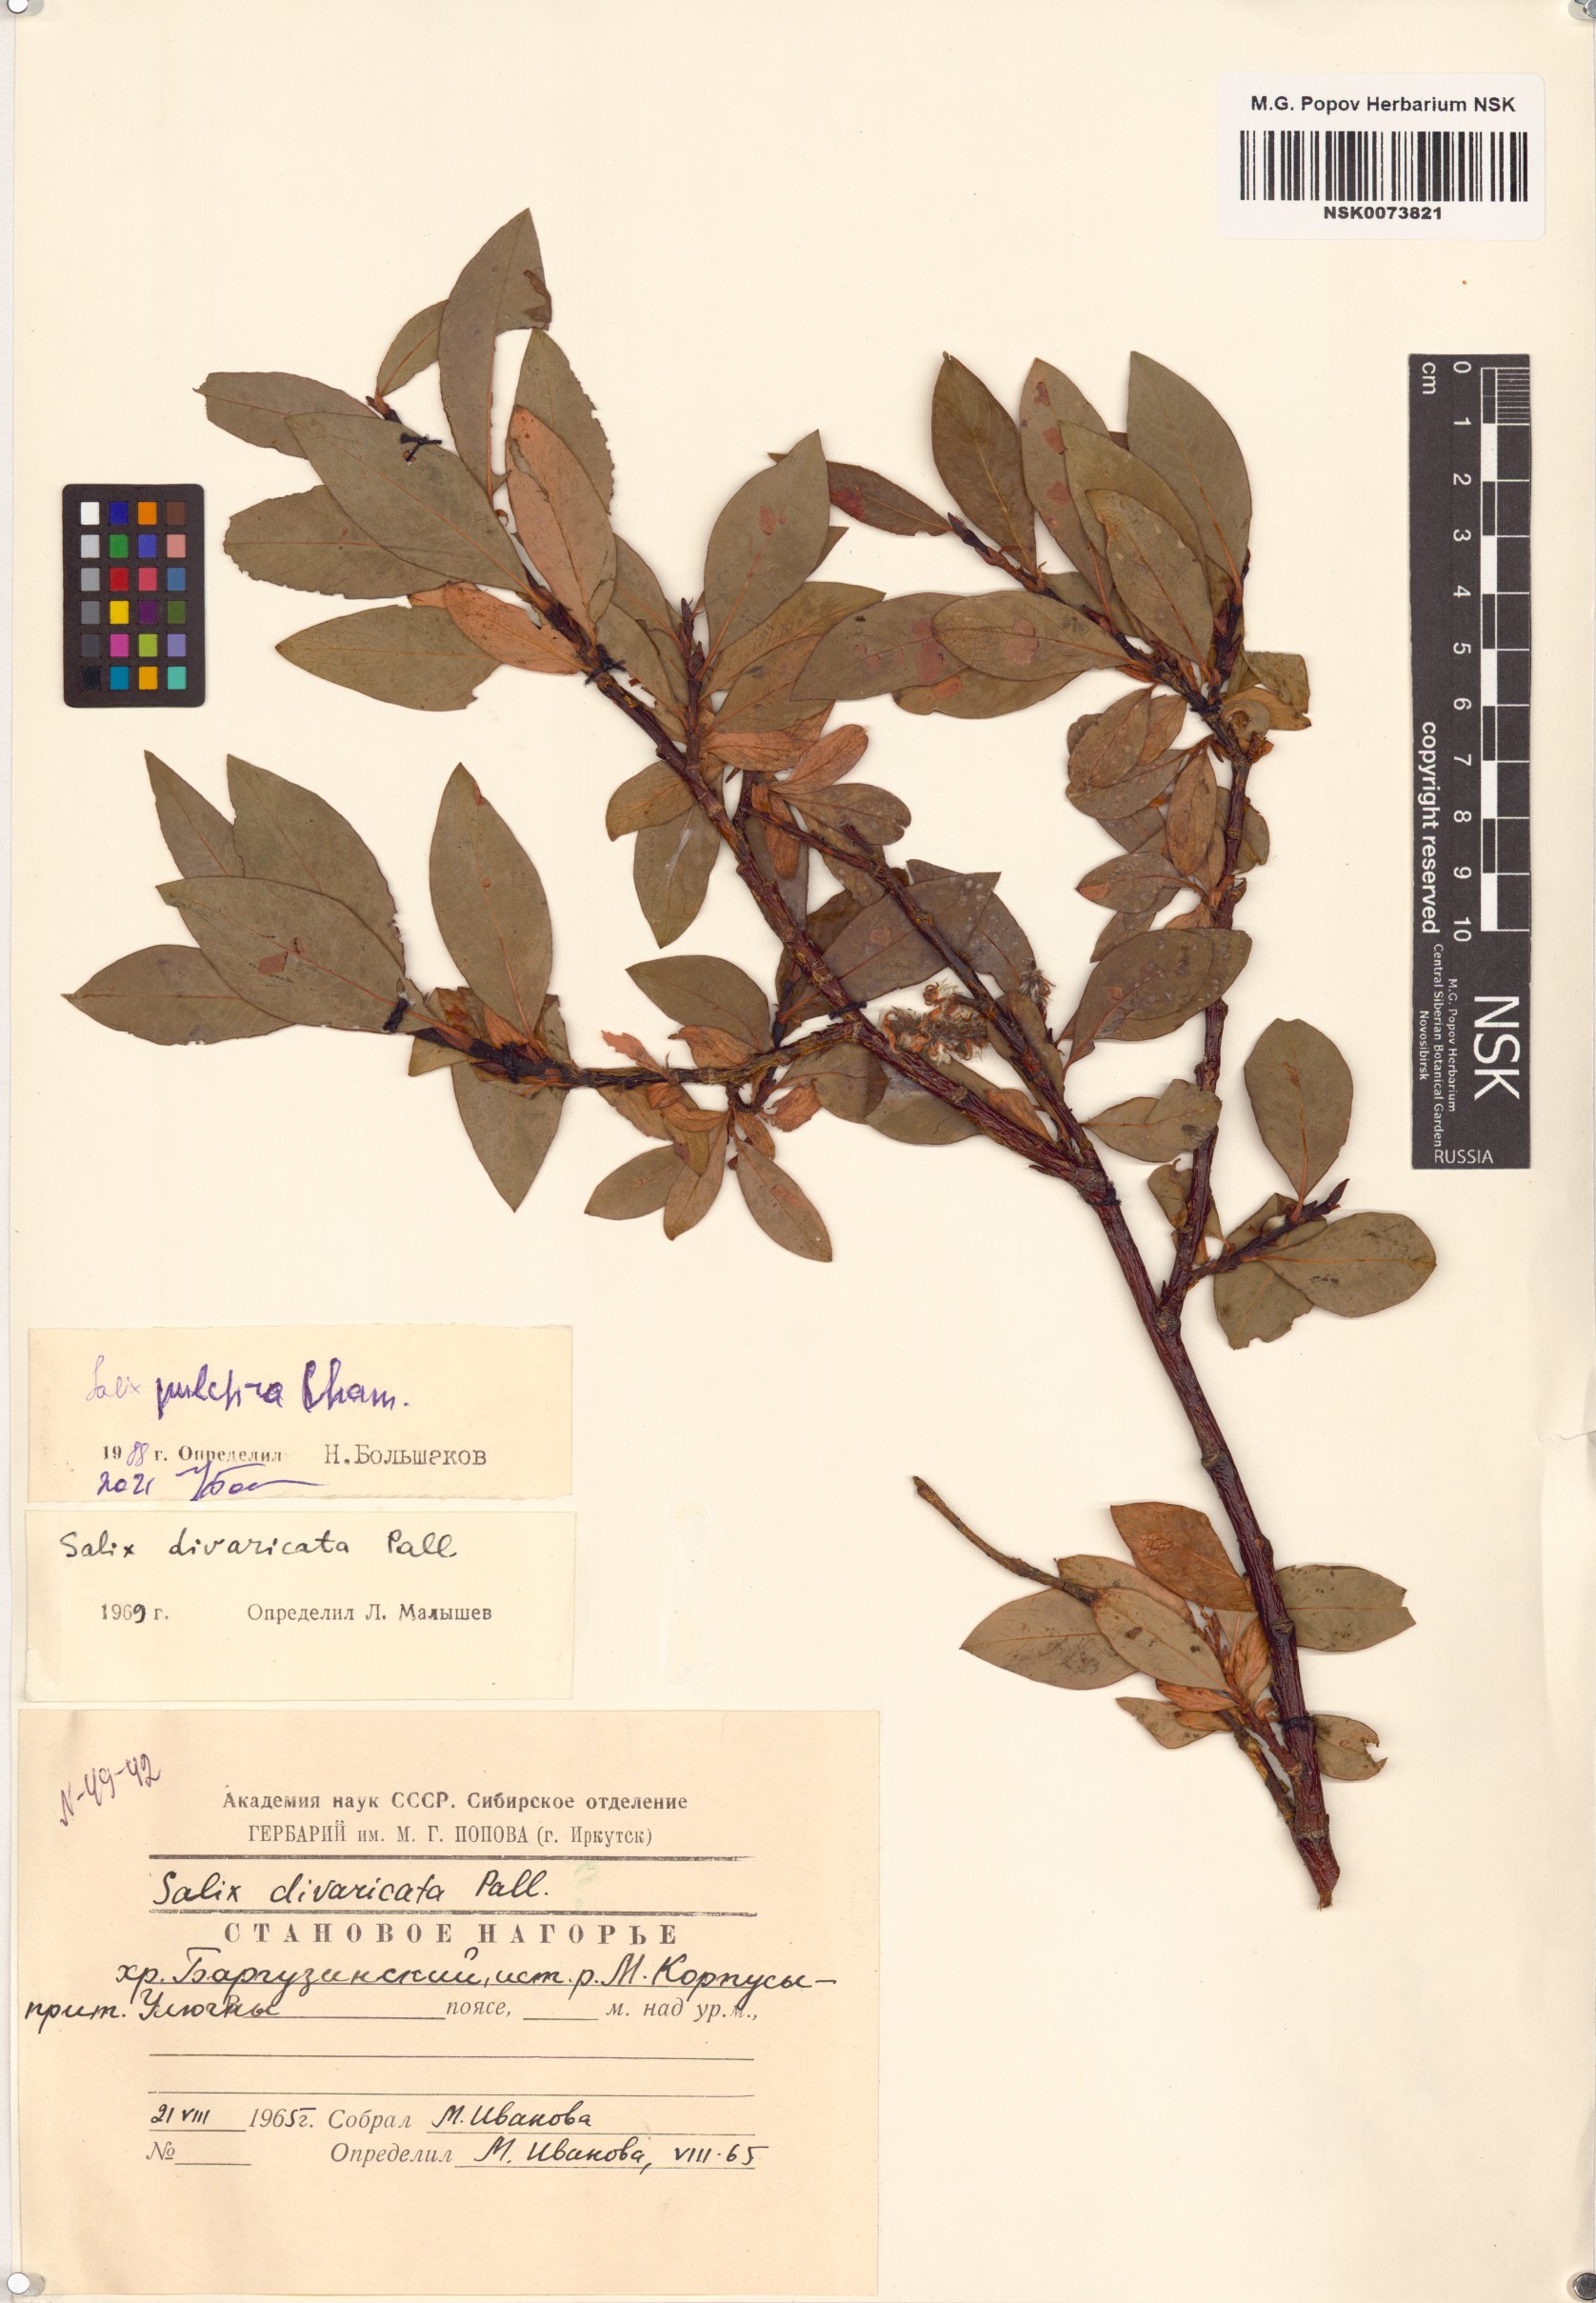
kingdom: Plantae
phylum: Tracheophyta
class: Magnoliopsida
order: Malpighiales
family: Salicaceae
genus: Salix
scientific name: Salix pulchra
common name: Diamond-leaved willow
